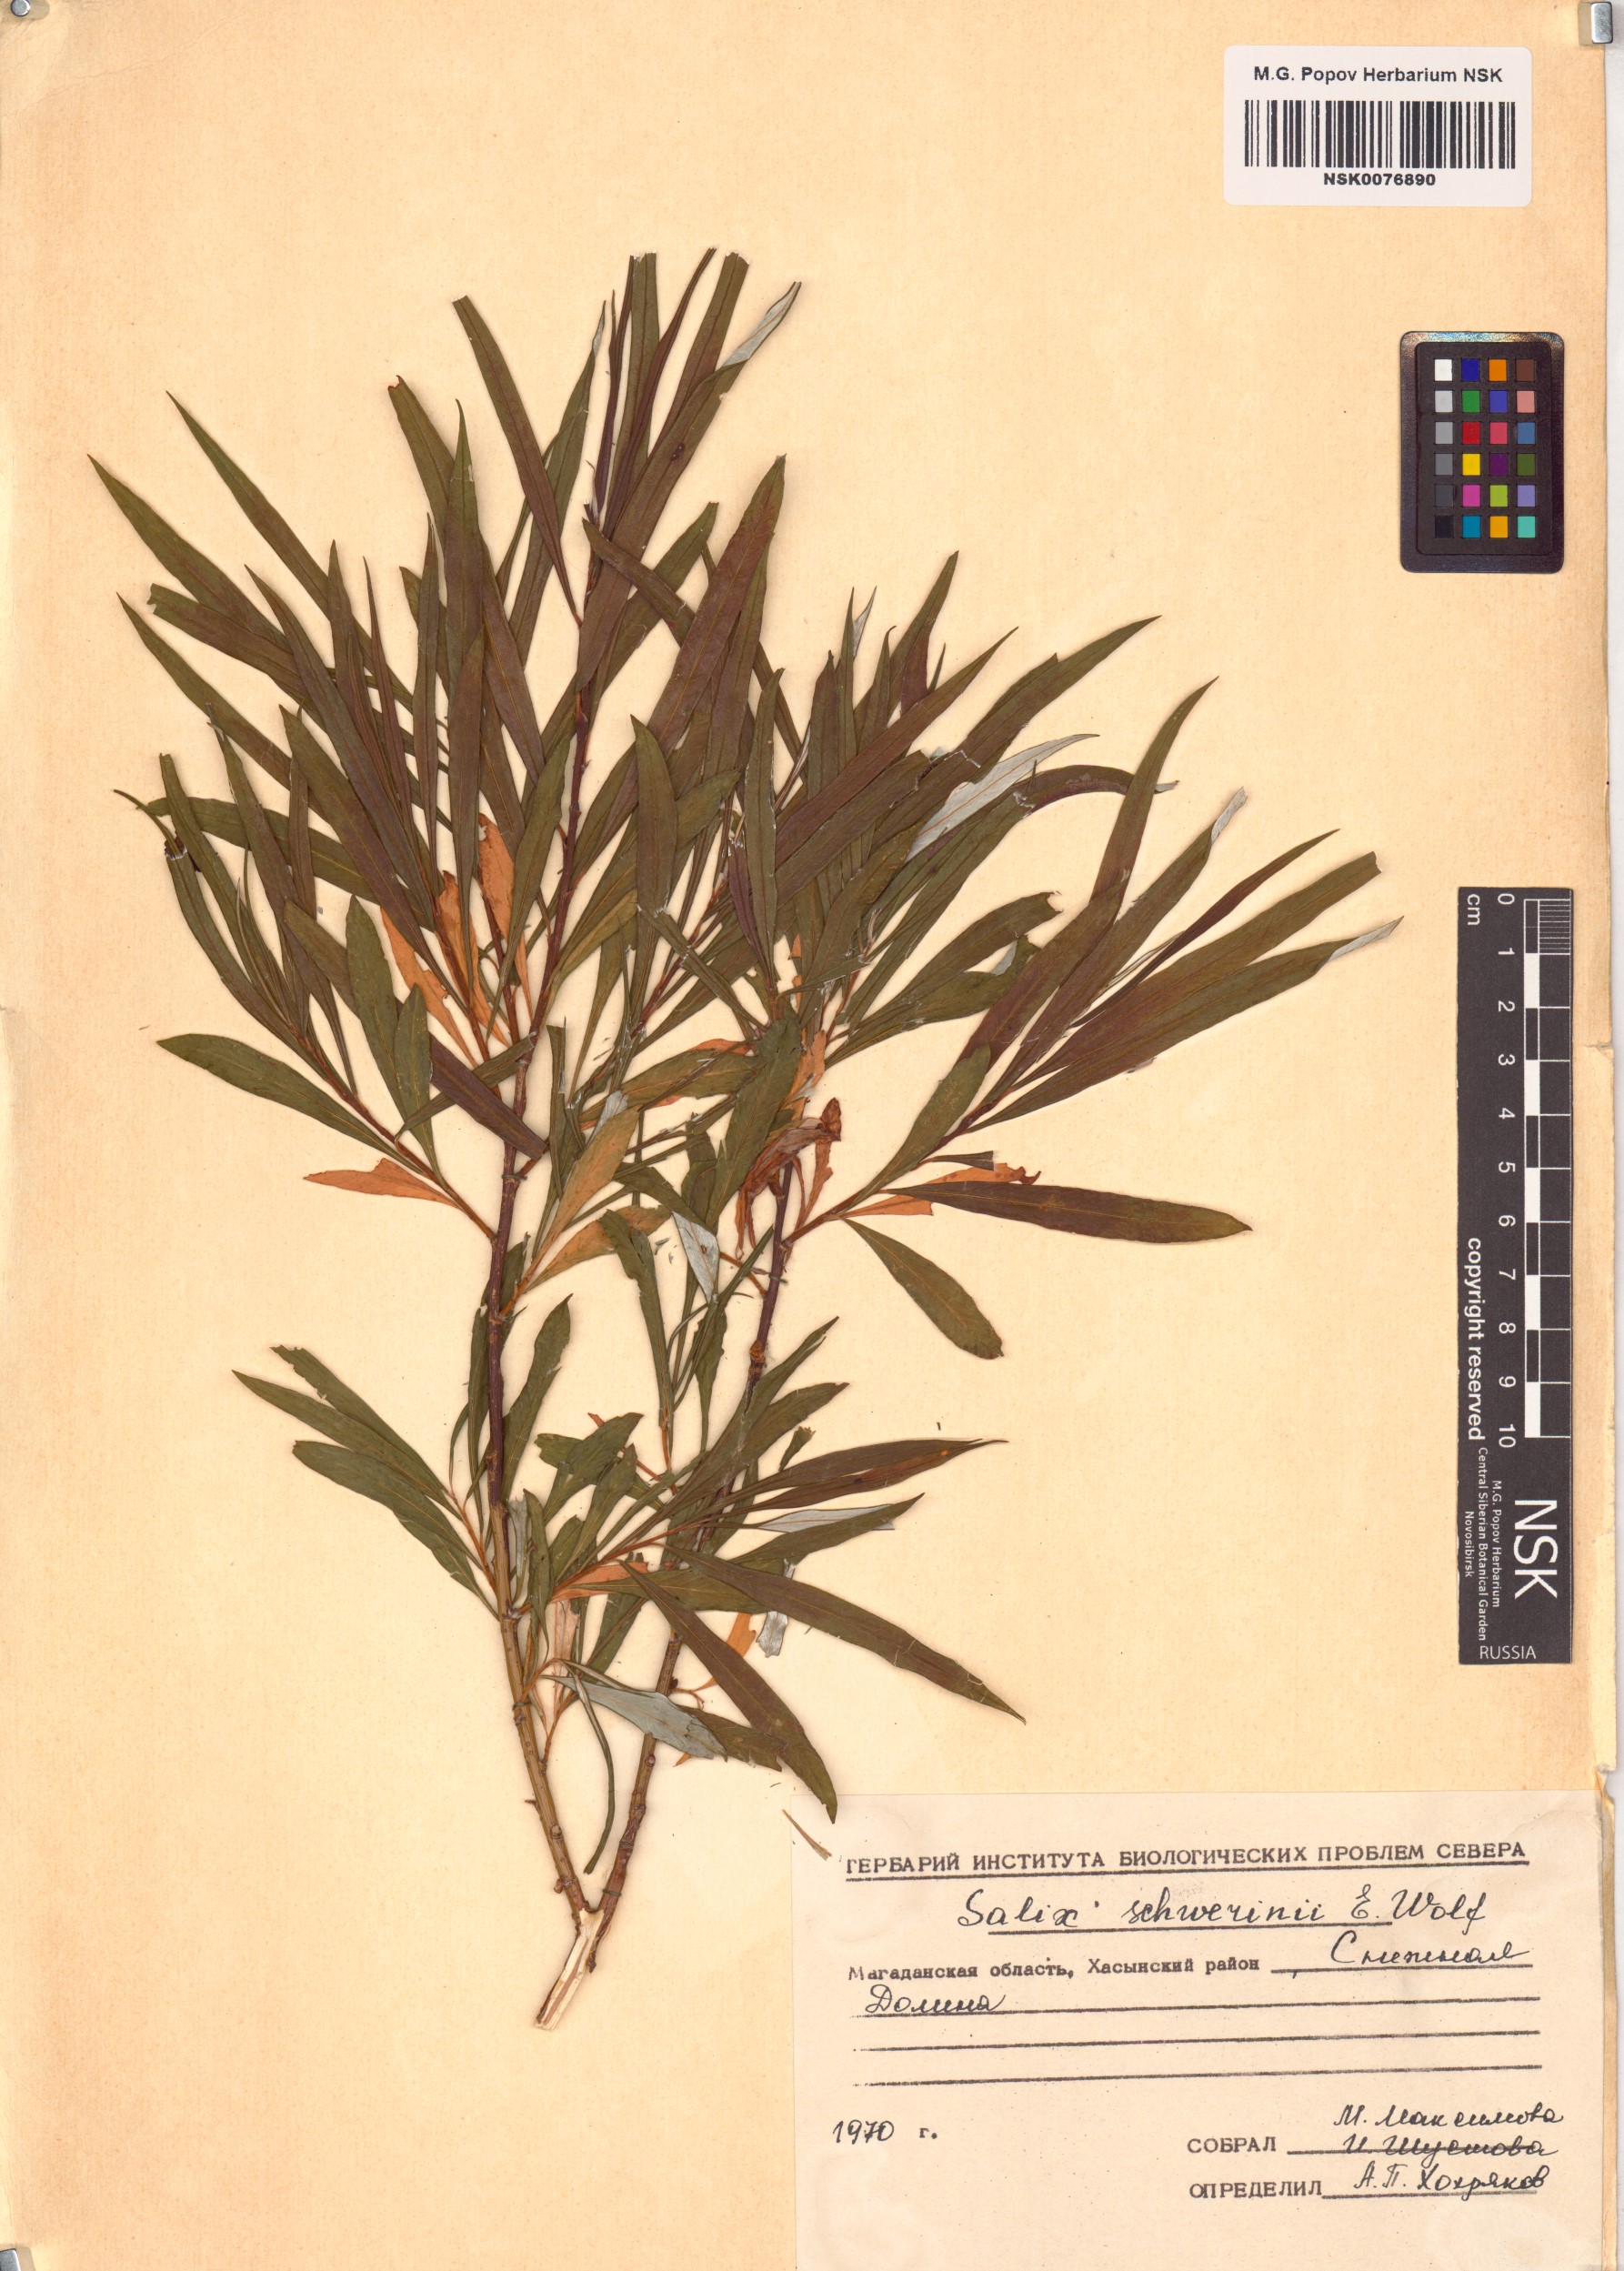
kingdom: Plantae
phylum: Tracheophyta
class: Magnoliopsida
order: Malpighiales
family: Salicaceae
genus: Salix
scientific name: Salix schwerinii
